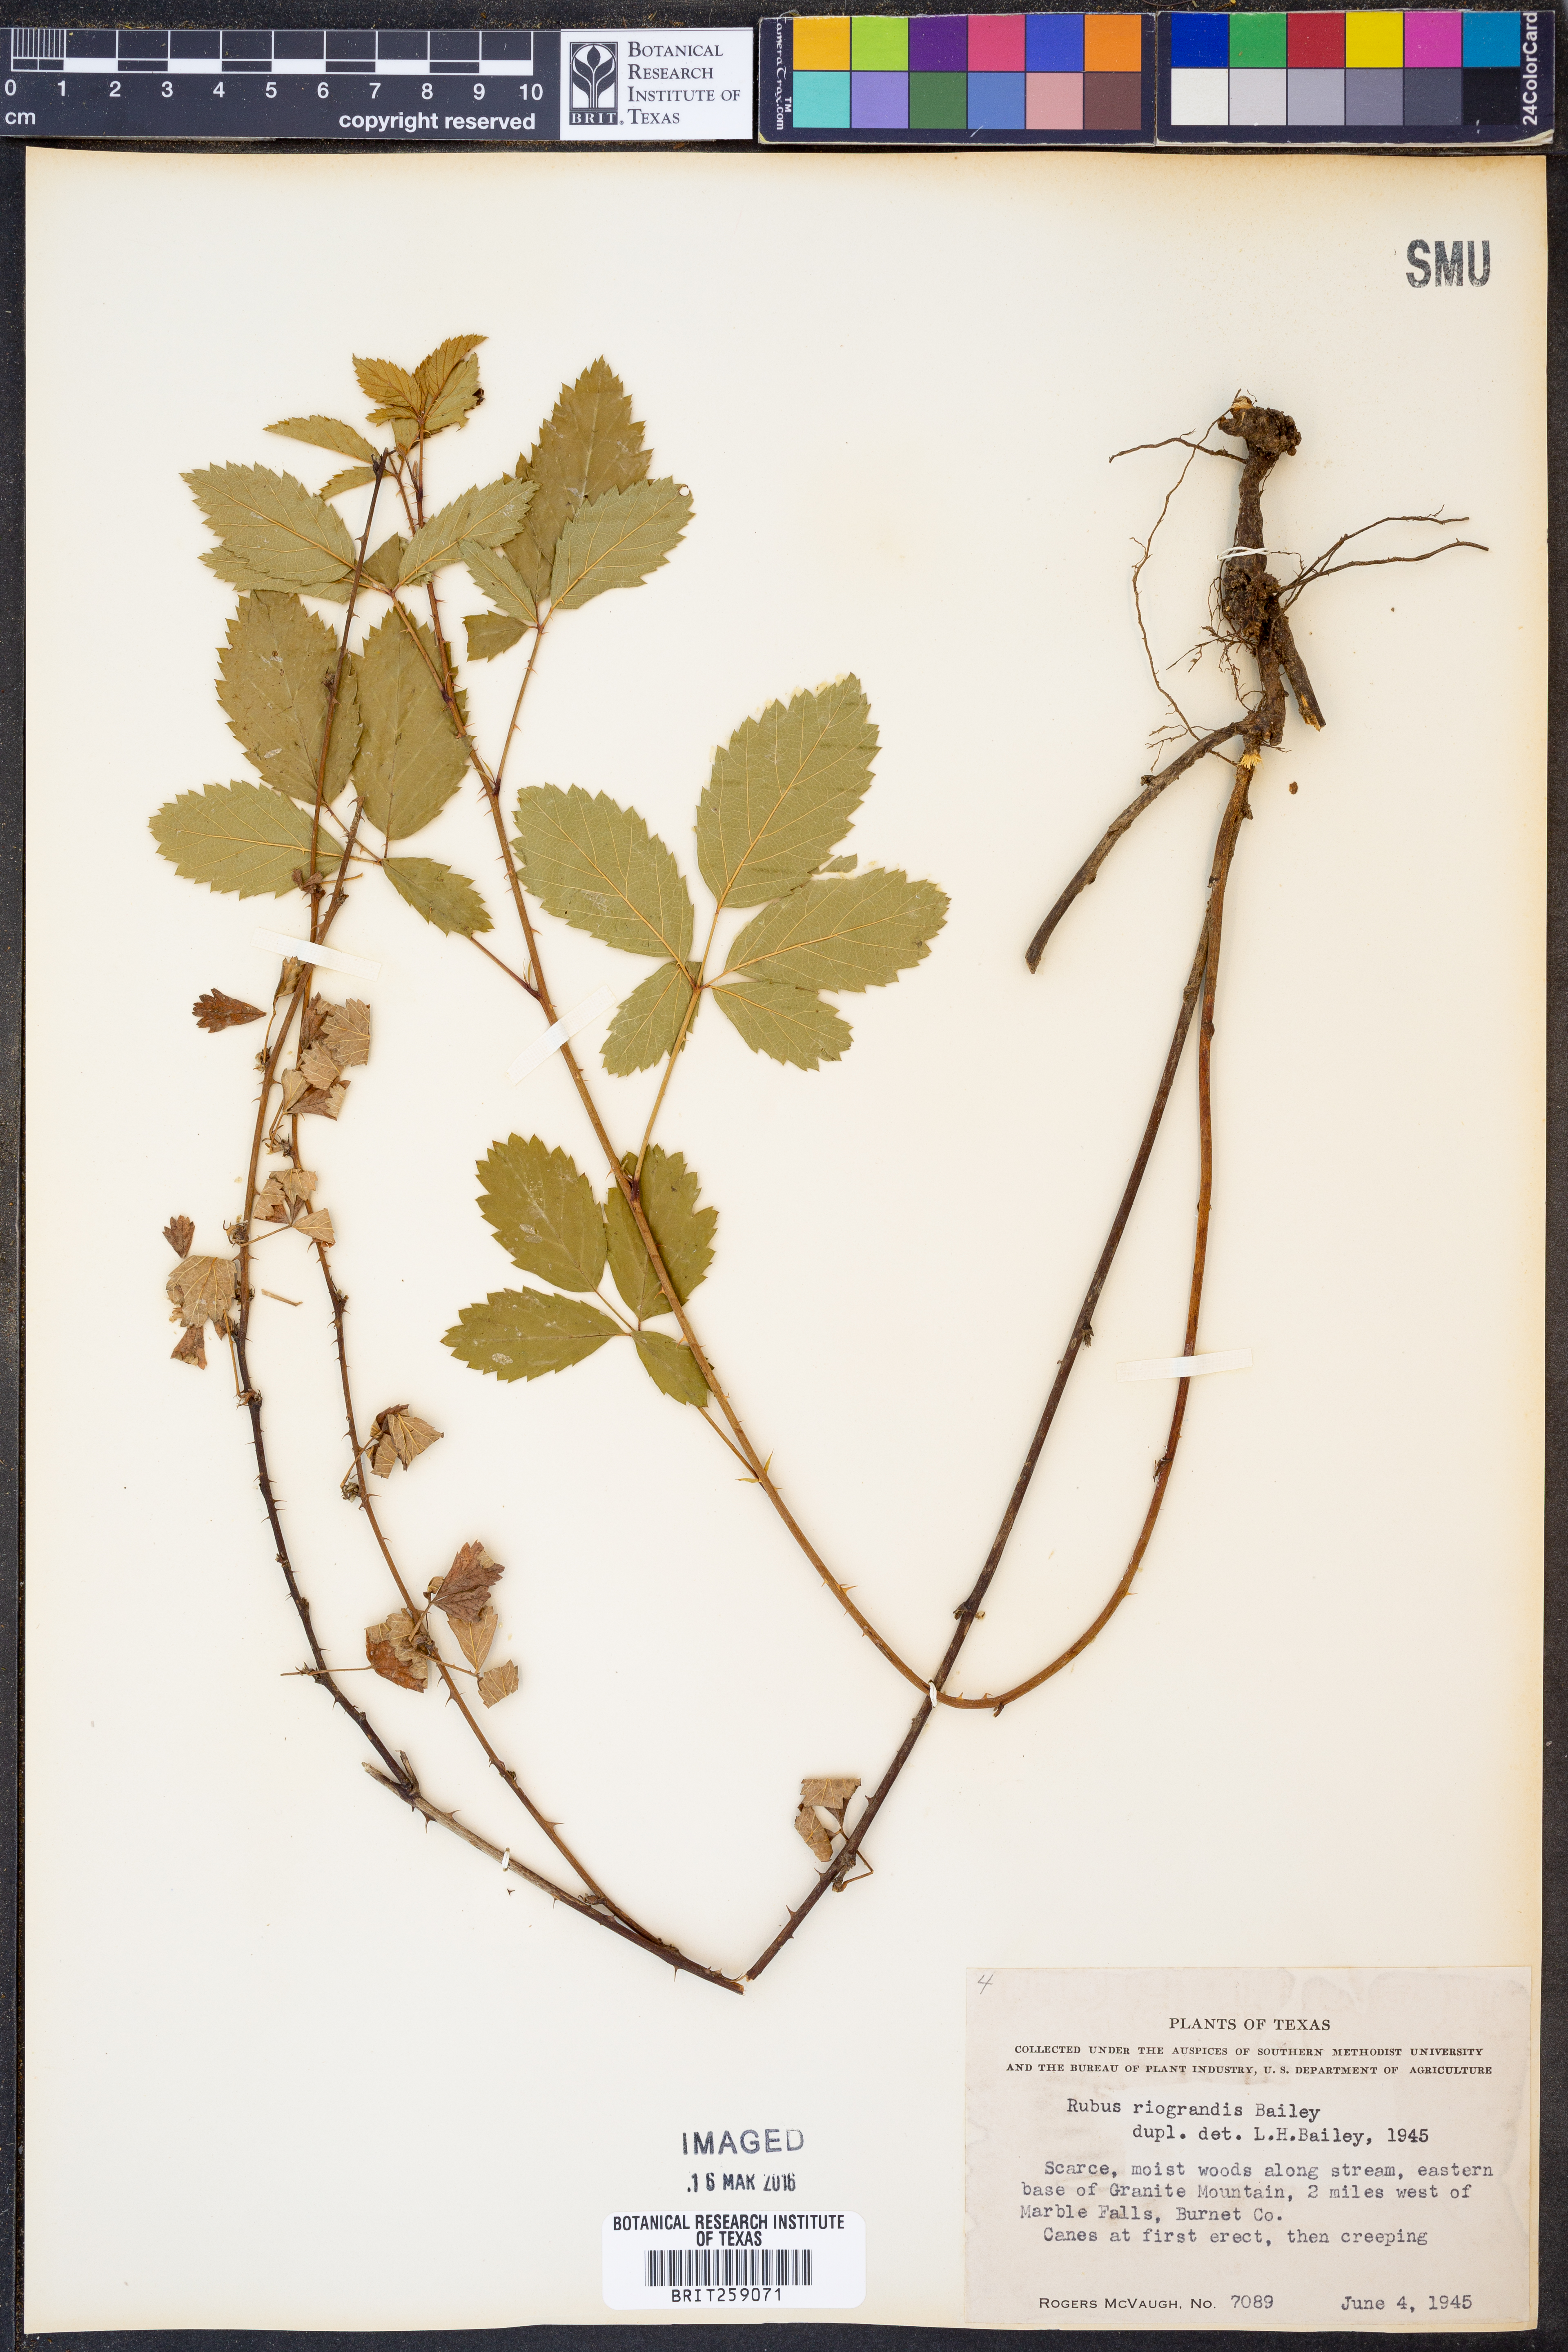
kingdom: Plantae
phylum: Tracheophyta
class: Magnoliopsida
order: Rosales
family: Rosaceae
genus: Rubus
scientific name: Rubus riograndis
